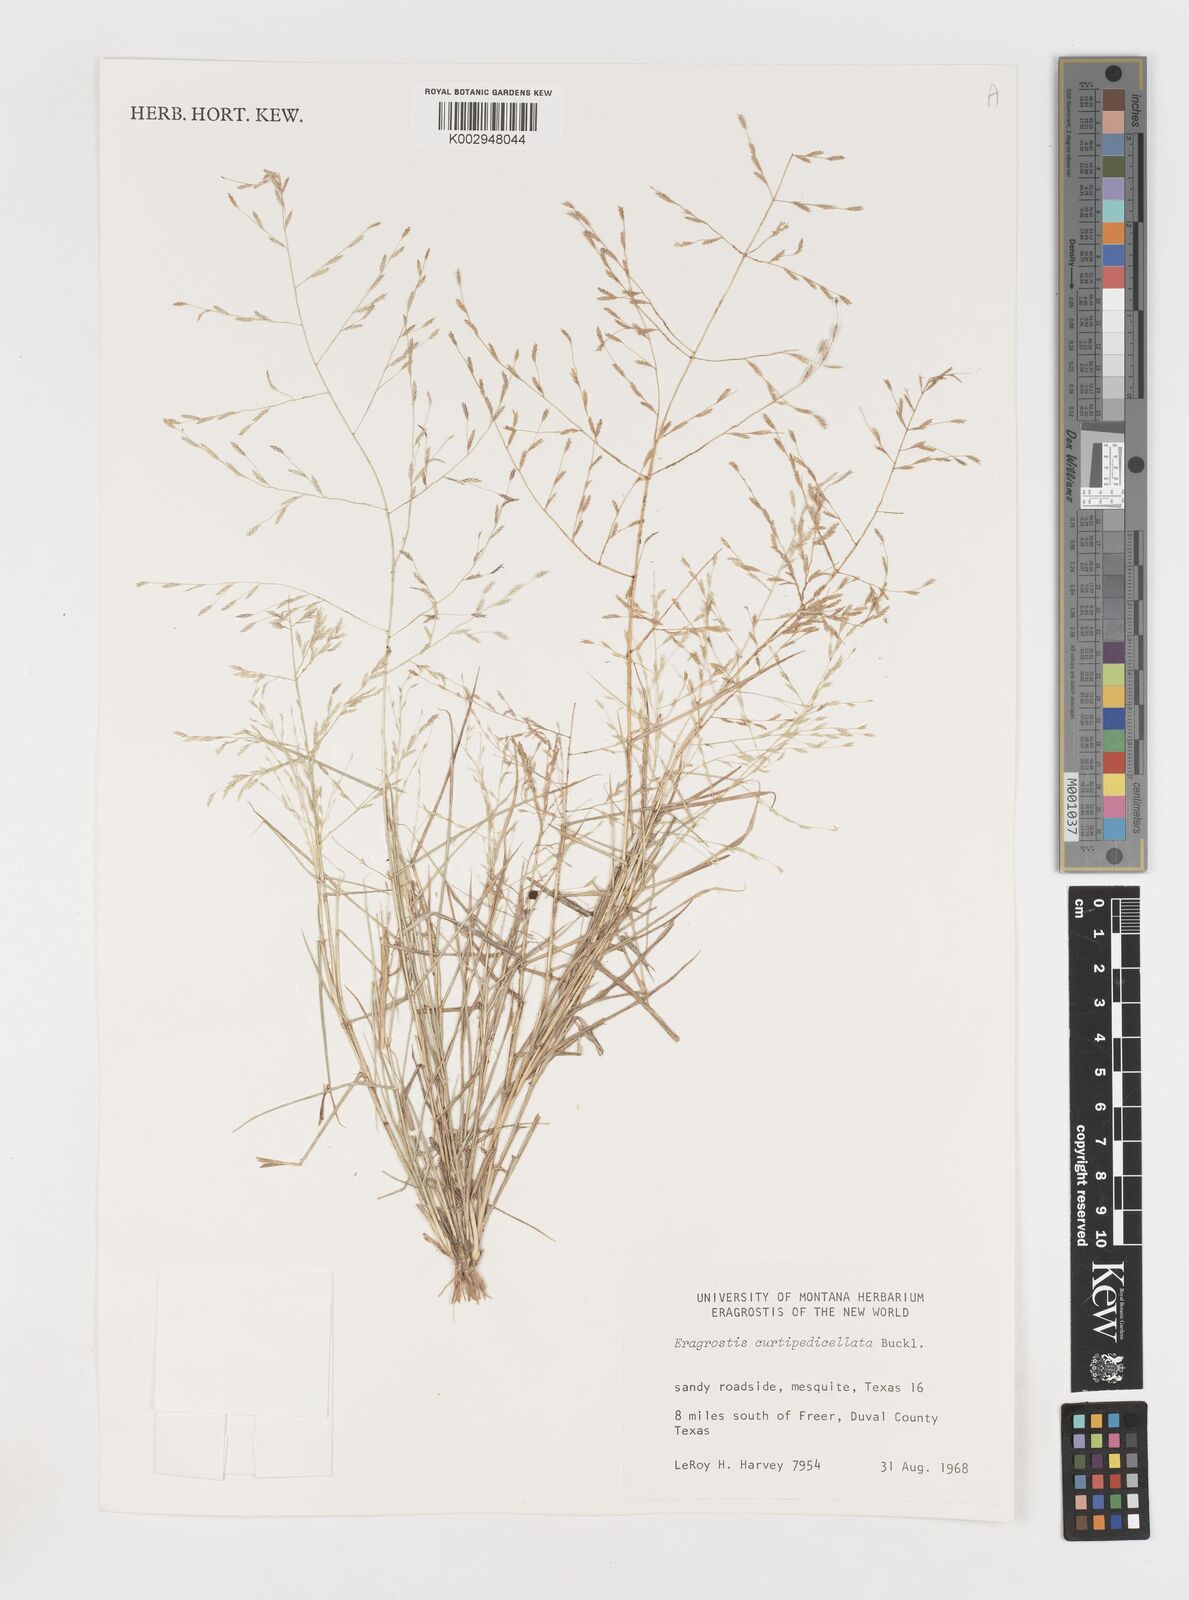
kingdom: Plantae
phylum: Tracheophyta
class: Liliopsida
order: Poales
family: Poaceae
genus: Eragrostis
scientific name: Eragrostis curtipedicellata
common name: Gummy love grass
